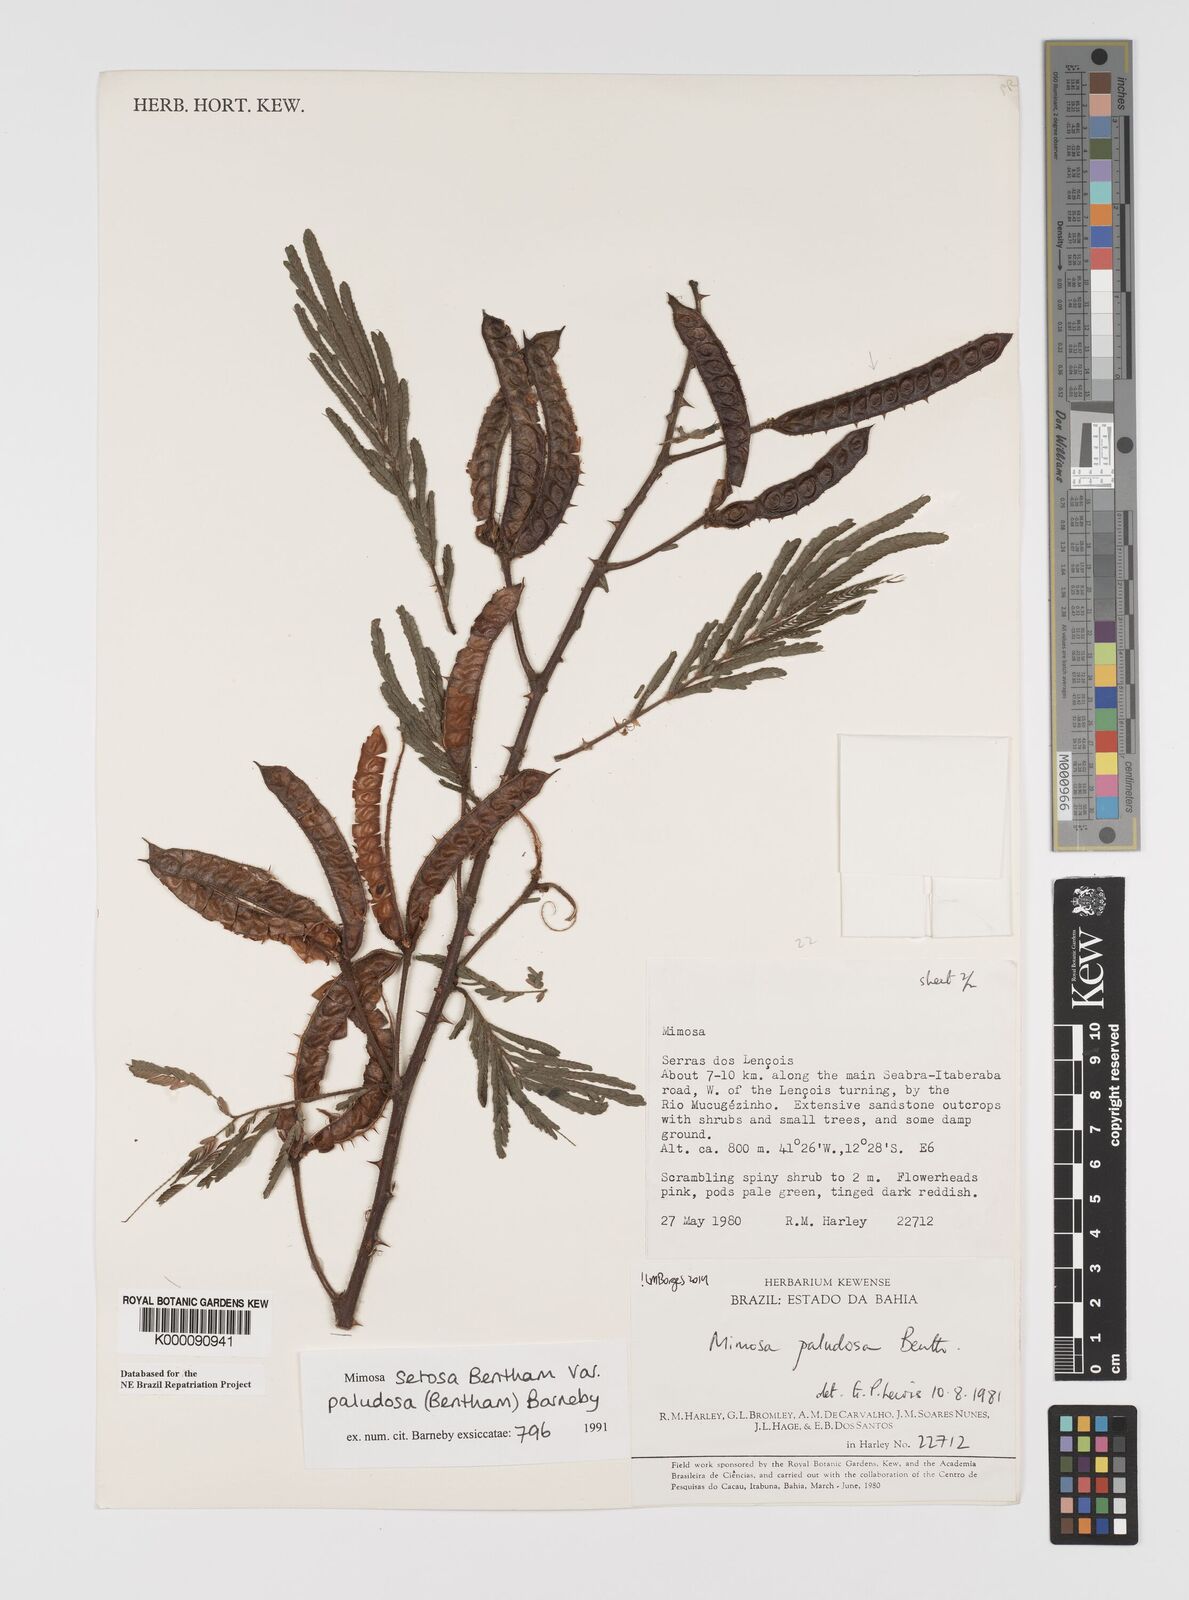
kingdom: Plantae
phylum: Tracheophyta
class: Magnoliopsida
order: Fabales
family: Fabaceae
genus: Mimosa
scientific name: Mimosa paludosa
